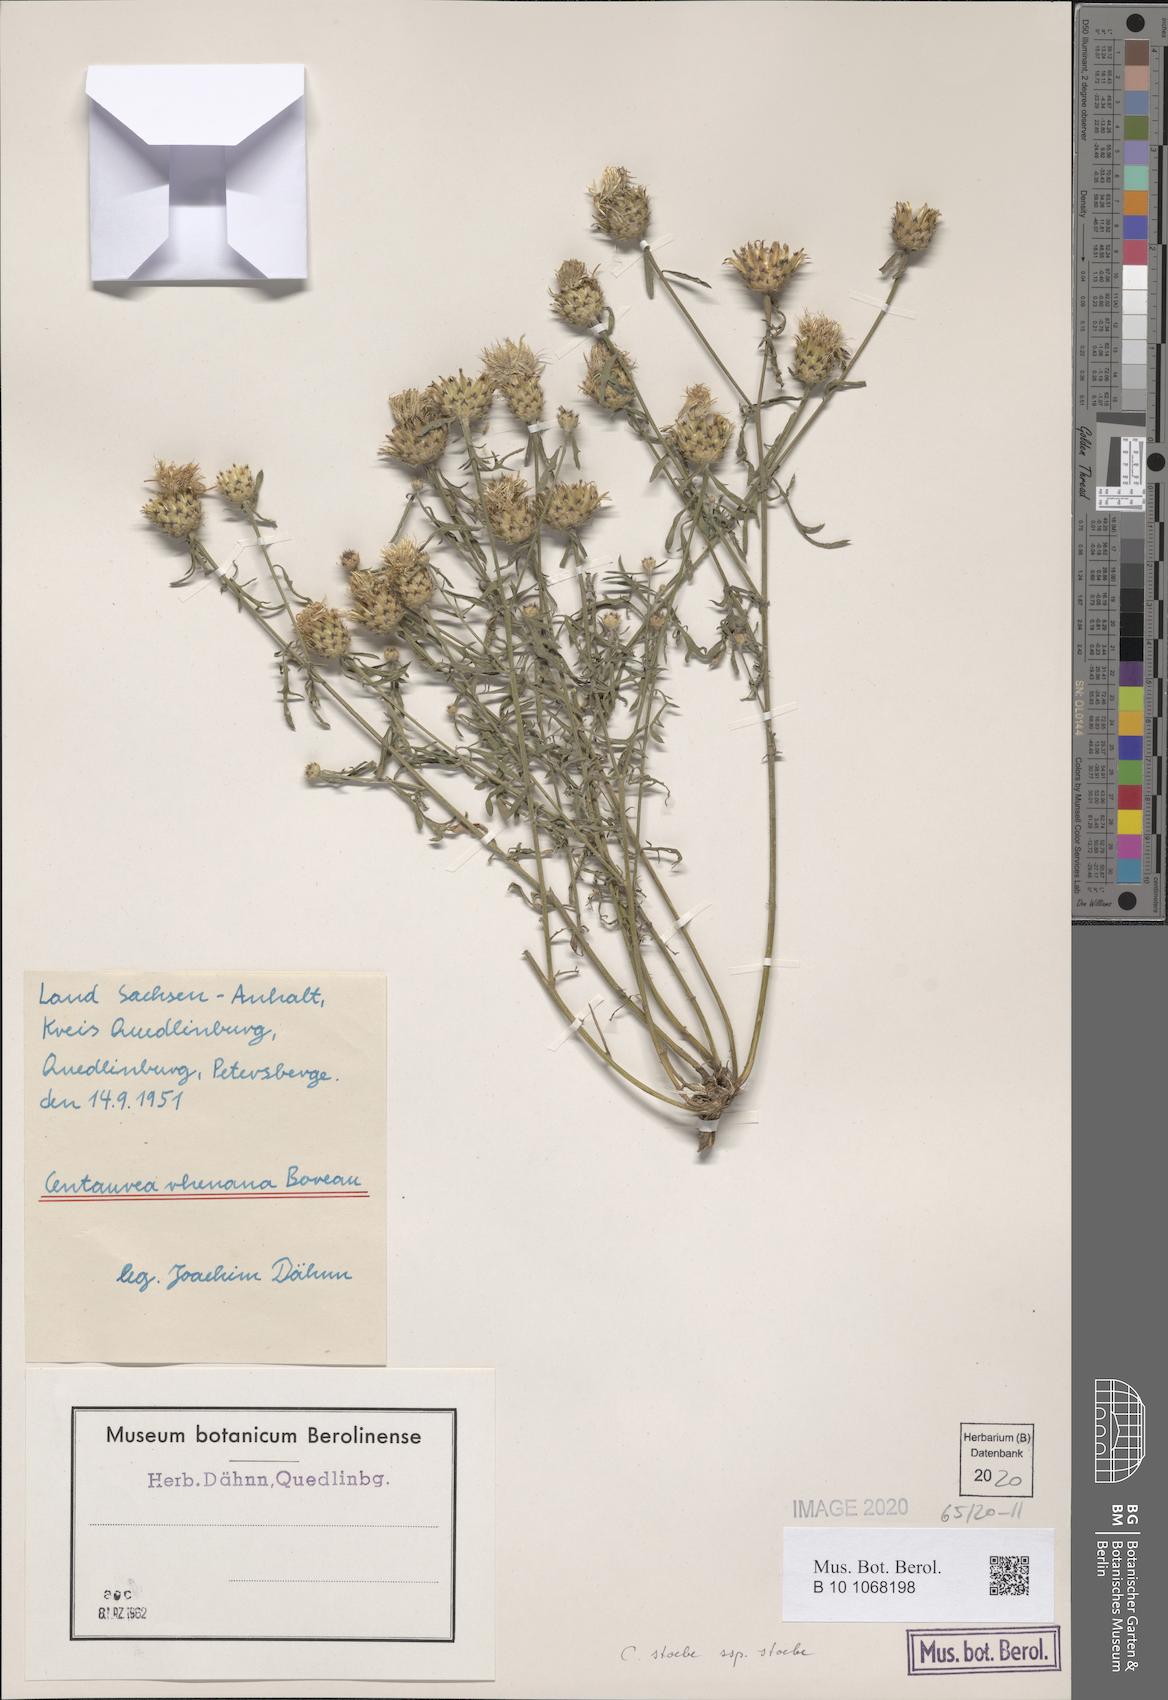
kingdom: Plantae
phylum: Tracheophyta
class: Magnoliopsida
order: Asterales
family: Asteraceae
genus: Centaurea
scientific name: Centaurea stoebe
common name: Spotted knapweed
